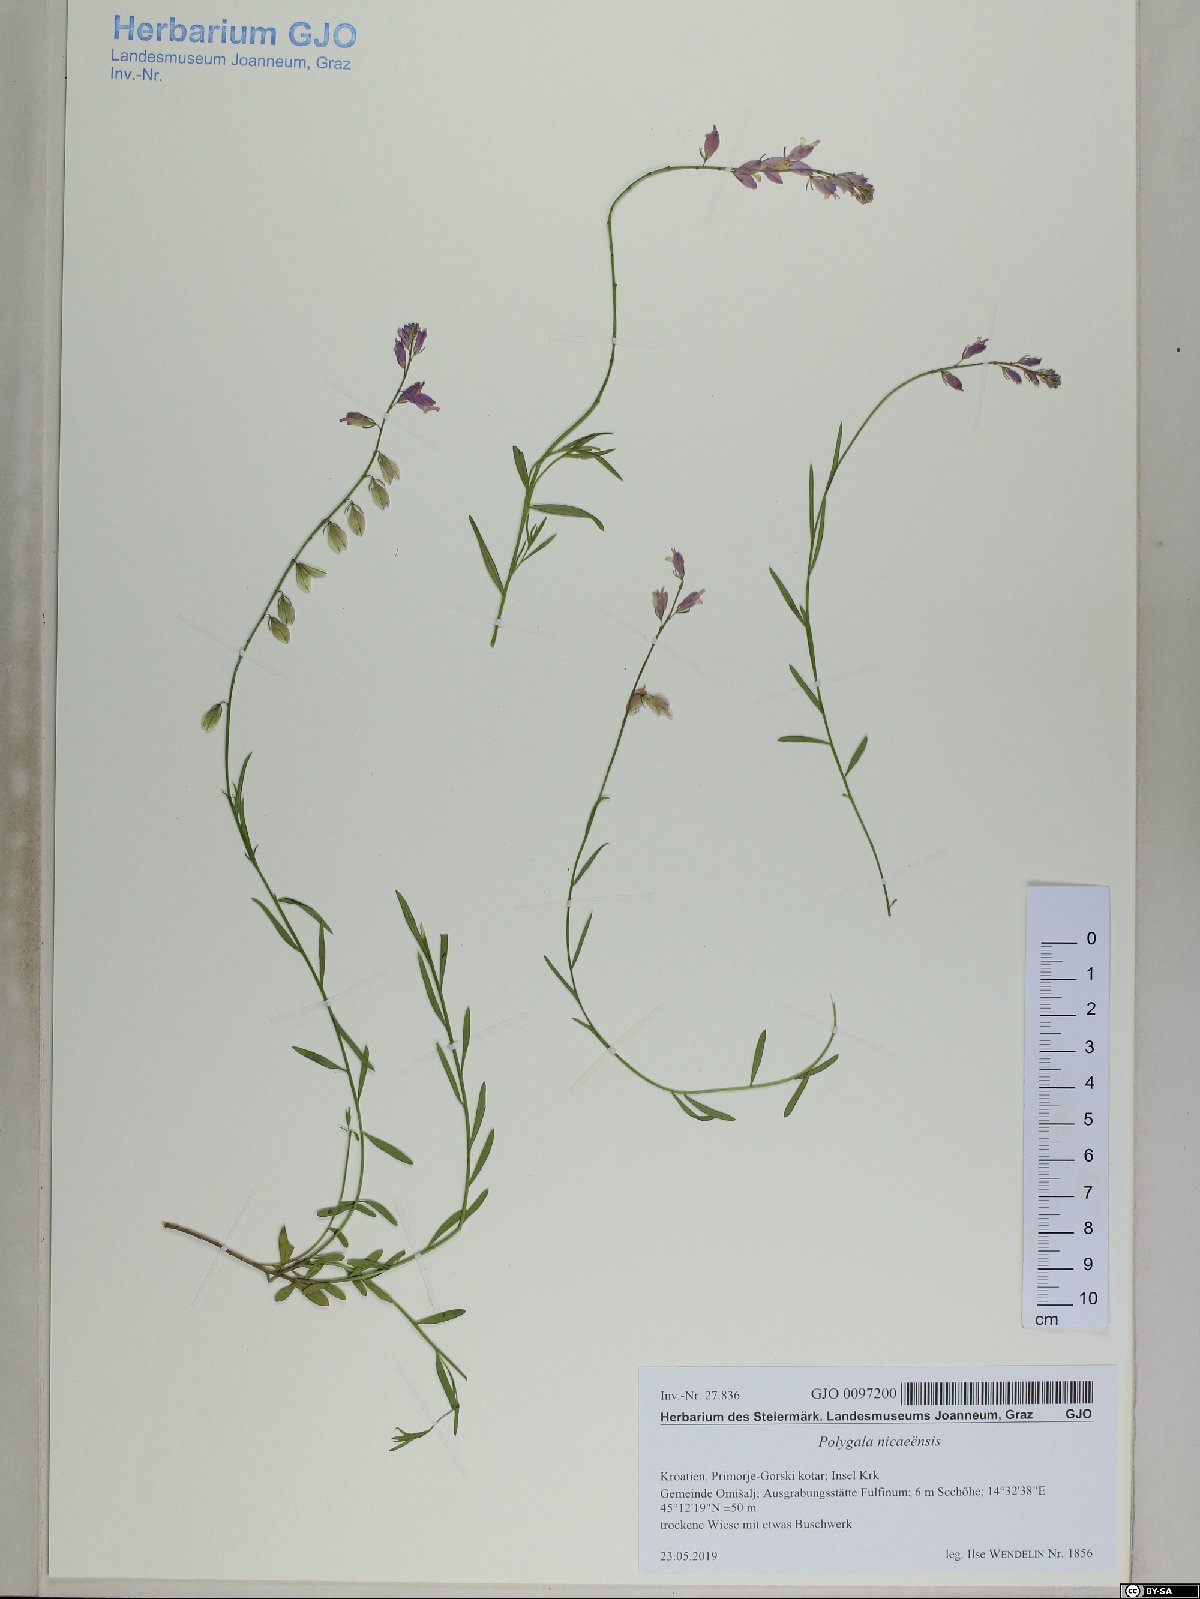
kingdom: Plantae
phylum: Tracheophyta
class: Magnoliopsida
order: Fabales
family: Polygalaceae
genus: Polygala
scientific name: Polygala nicaeensis
